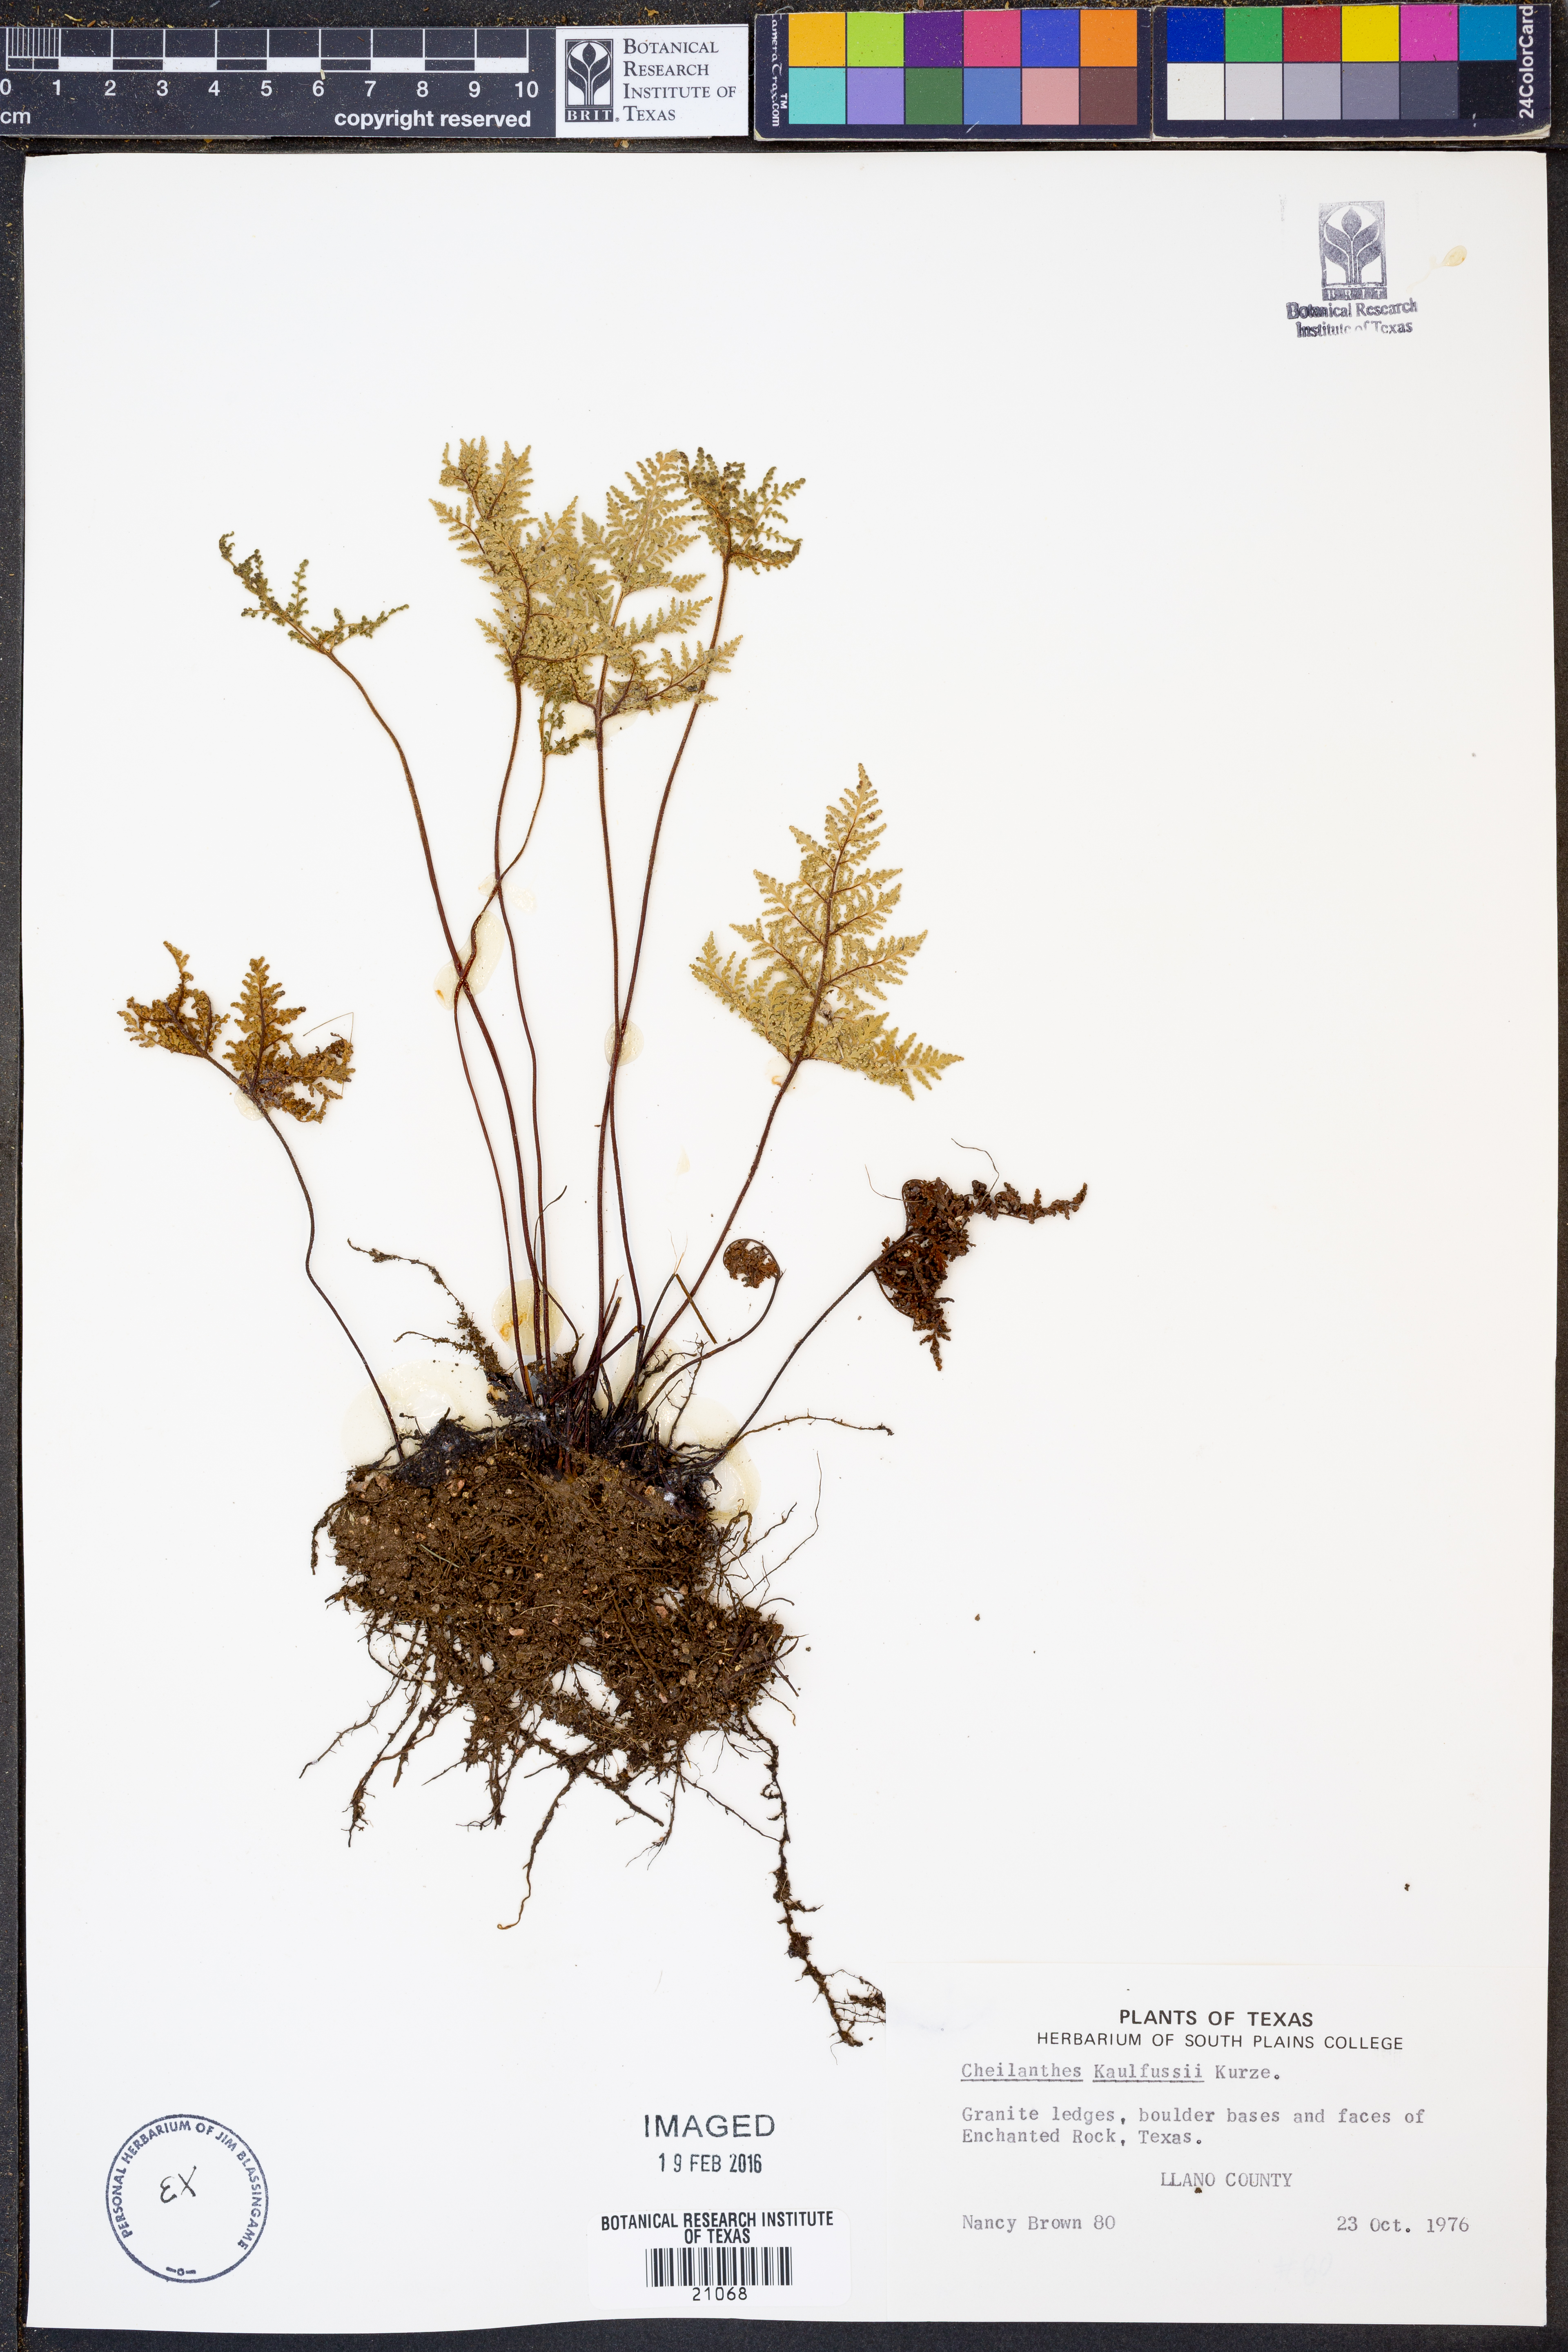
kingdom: Plantae
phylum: Tracheophyta
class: Polypodiopsida
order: Polypodiales
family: Pteridaceae
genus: Gaga
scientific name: Gaga kaulfussii
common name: Glandular lip fern
